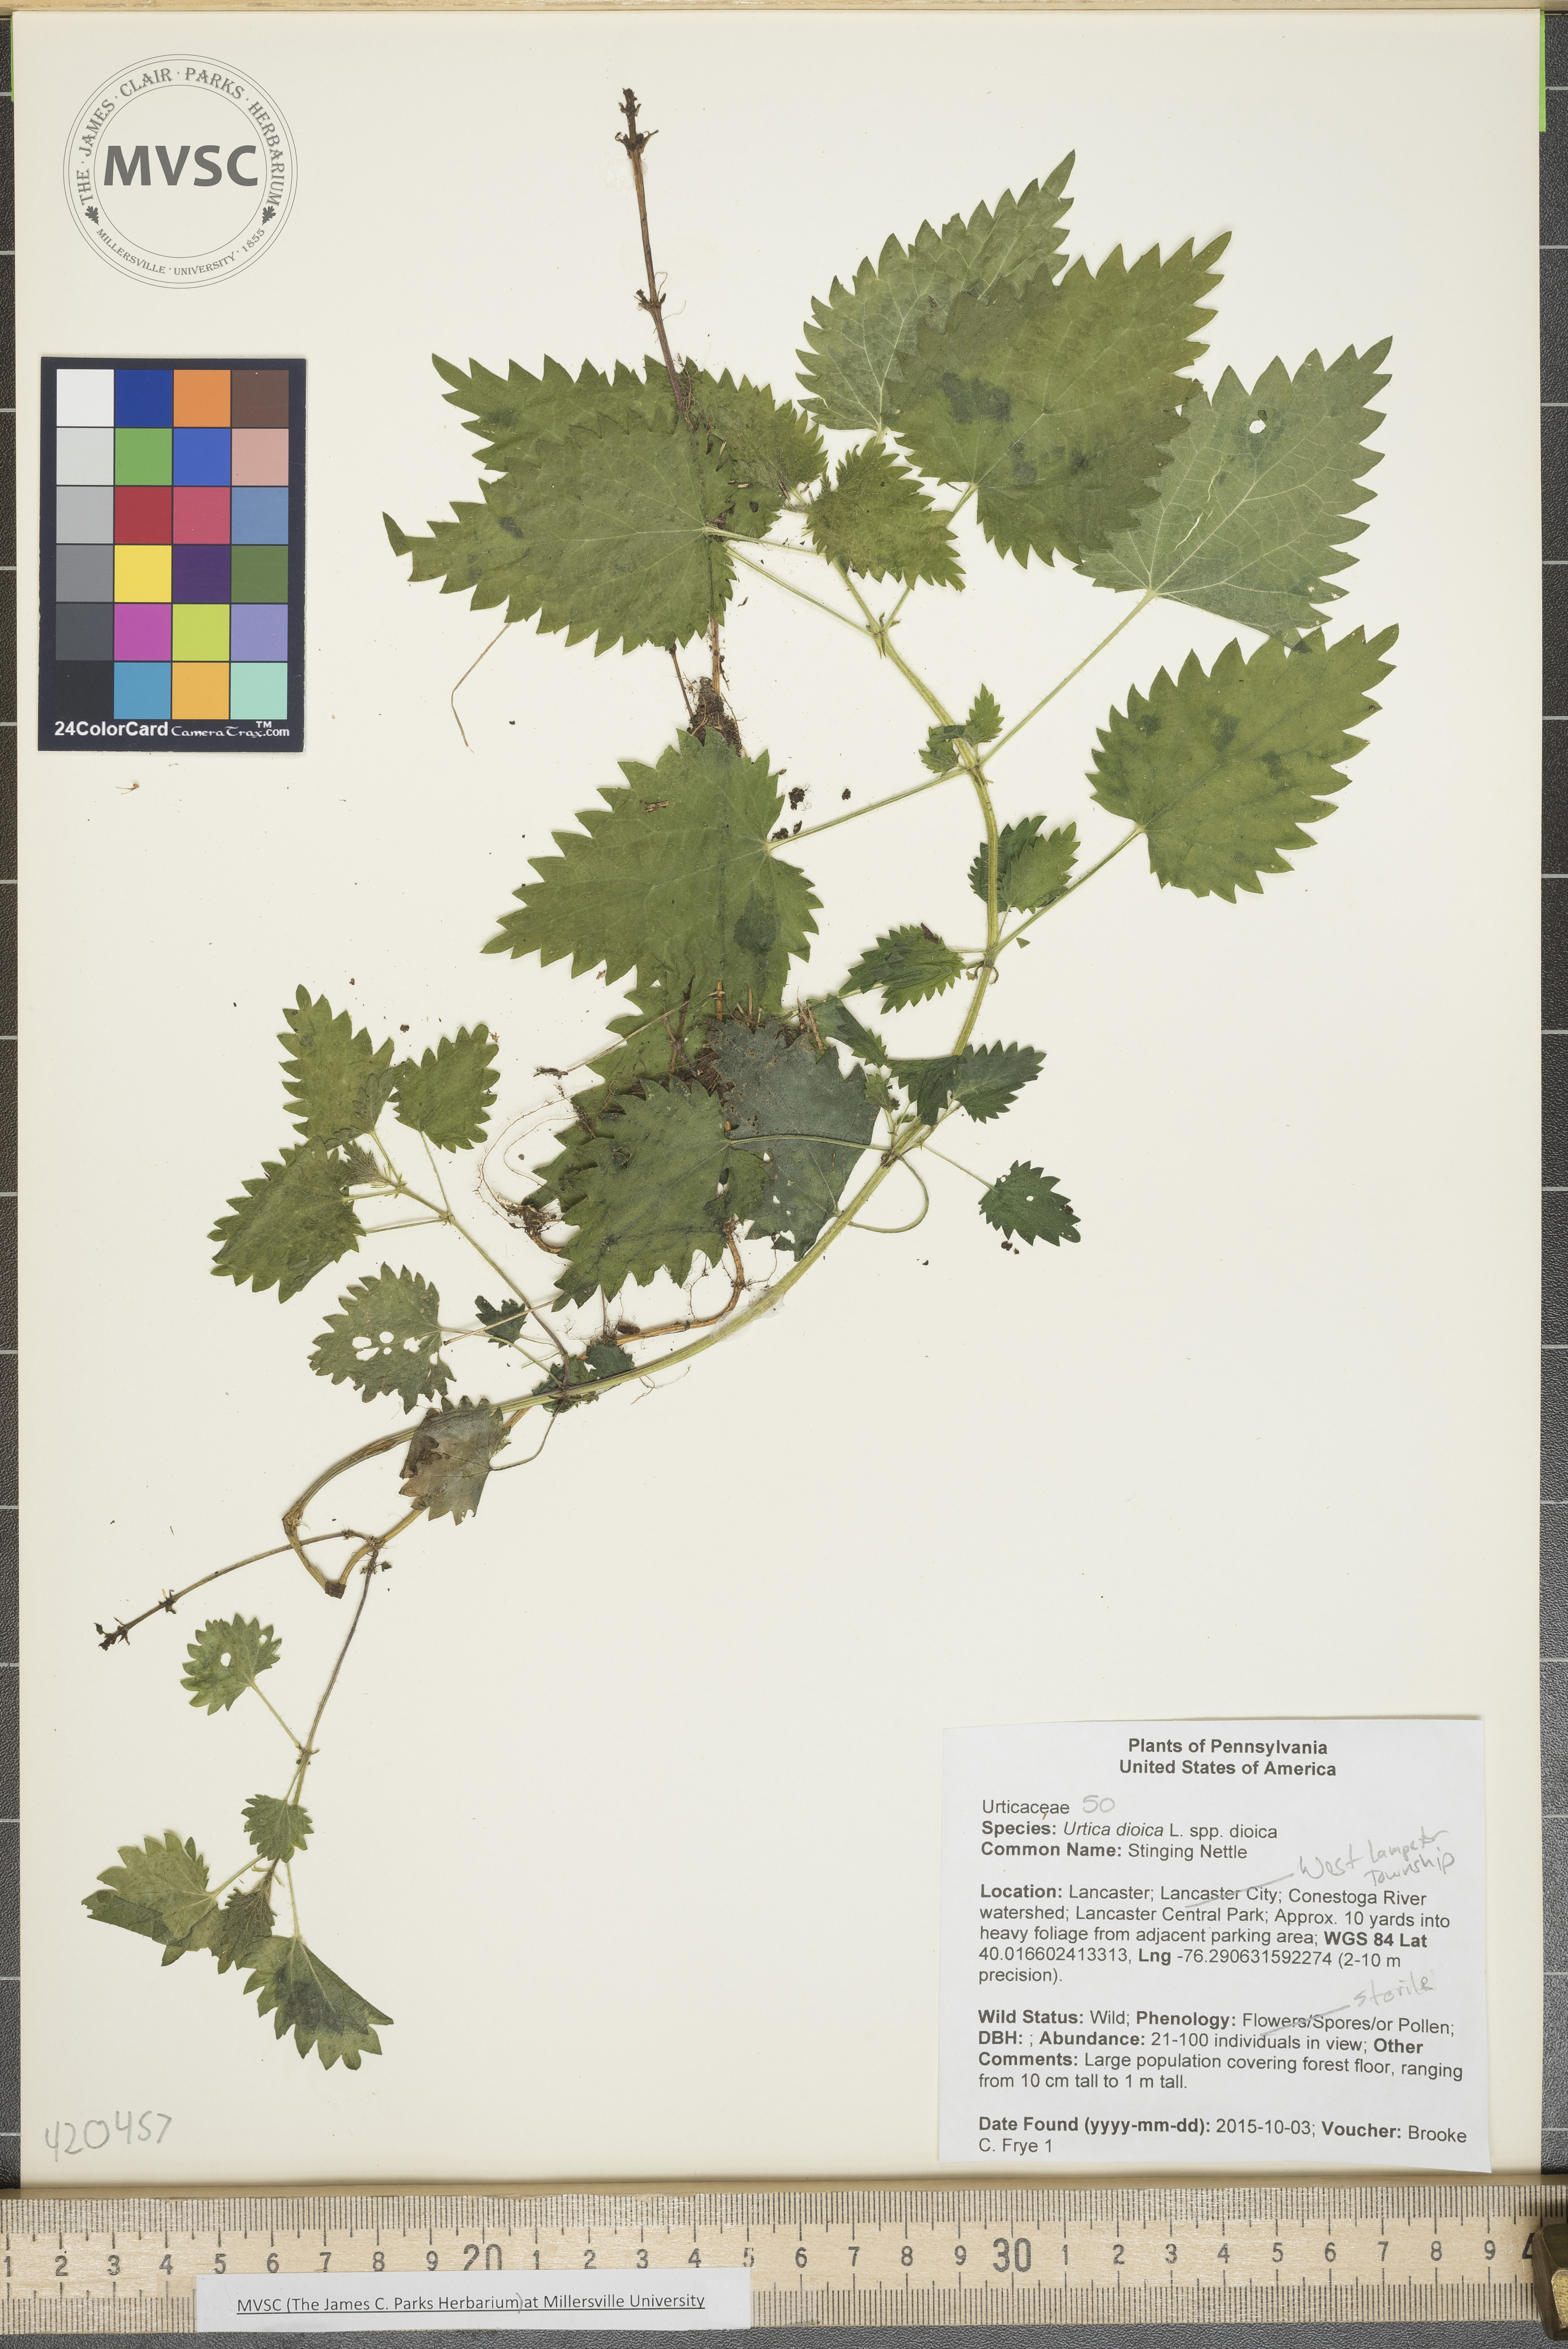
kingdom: Plantae
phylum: Tracheophyta
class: Magnoliopsida
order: Rosales
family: Urticaceae
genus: Urtica
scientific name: Urtica dioica
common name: Stinging Nettle
